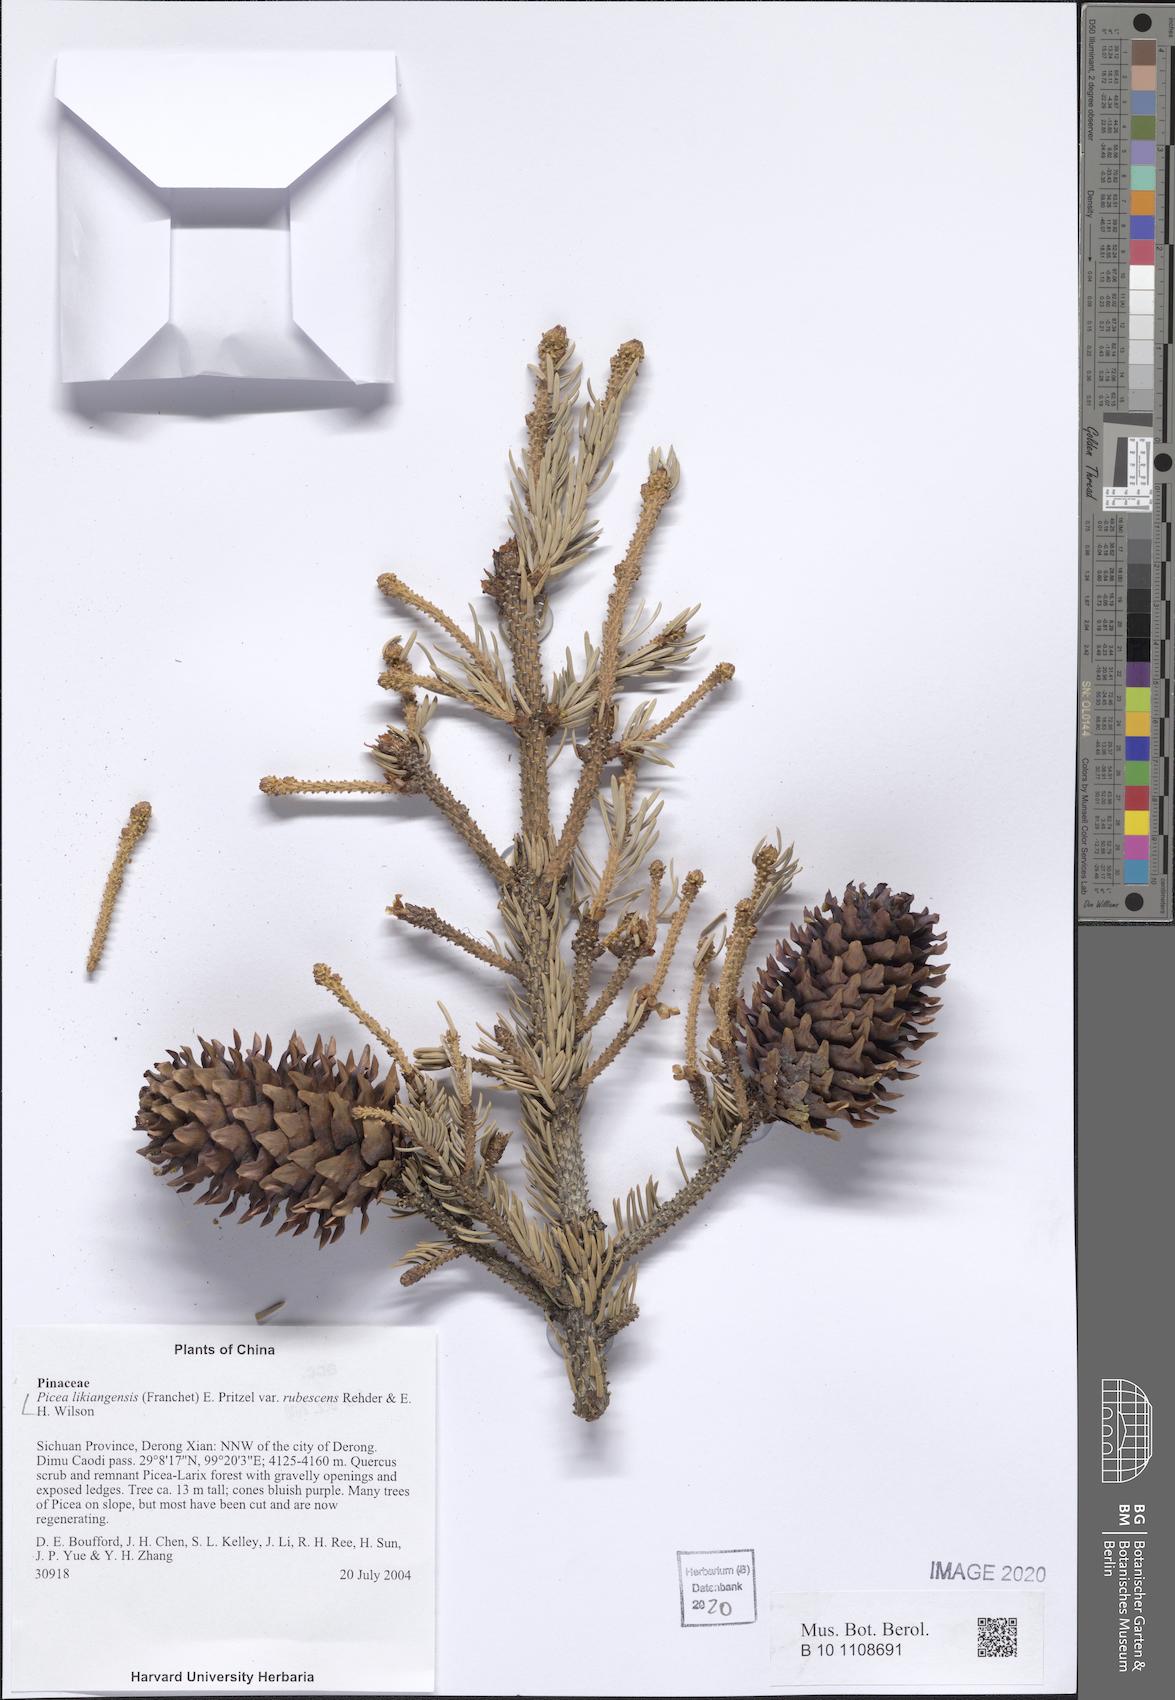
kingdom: Plantae
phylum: Tracheophyta
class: Pinopsida
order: Pinales
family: Pinaceae
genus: Picea
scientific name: Picea likiangensis
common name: Likiang spruce
